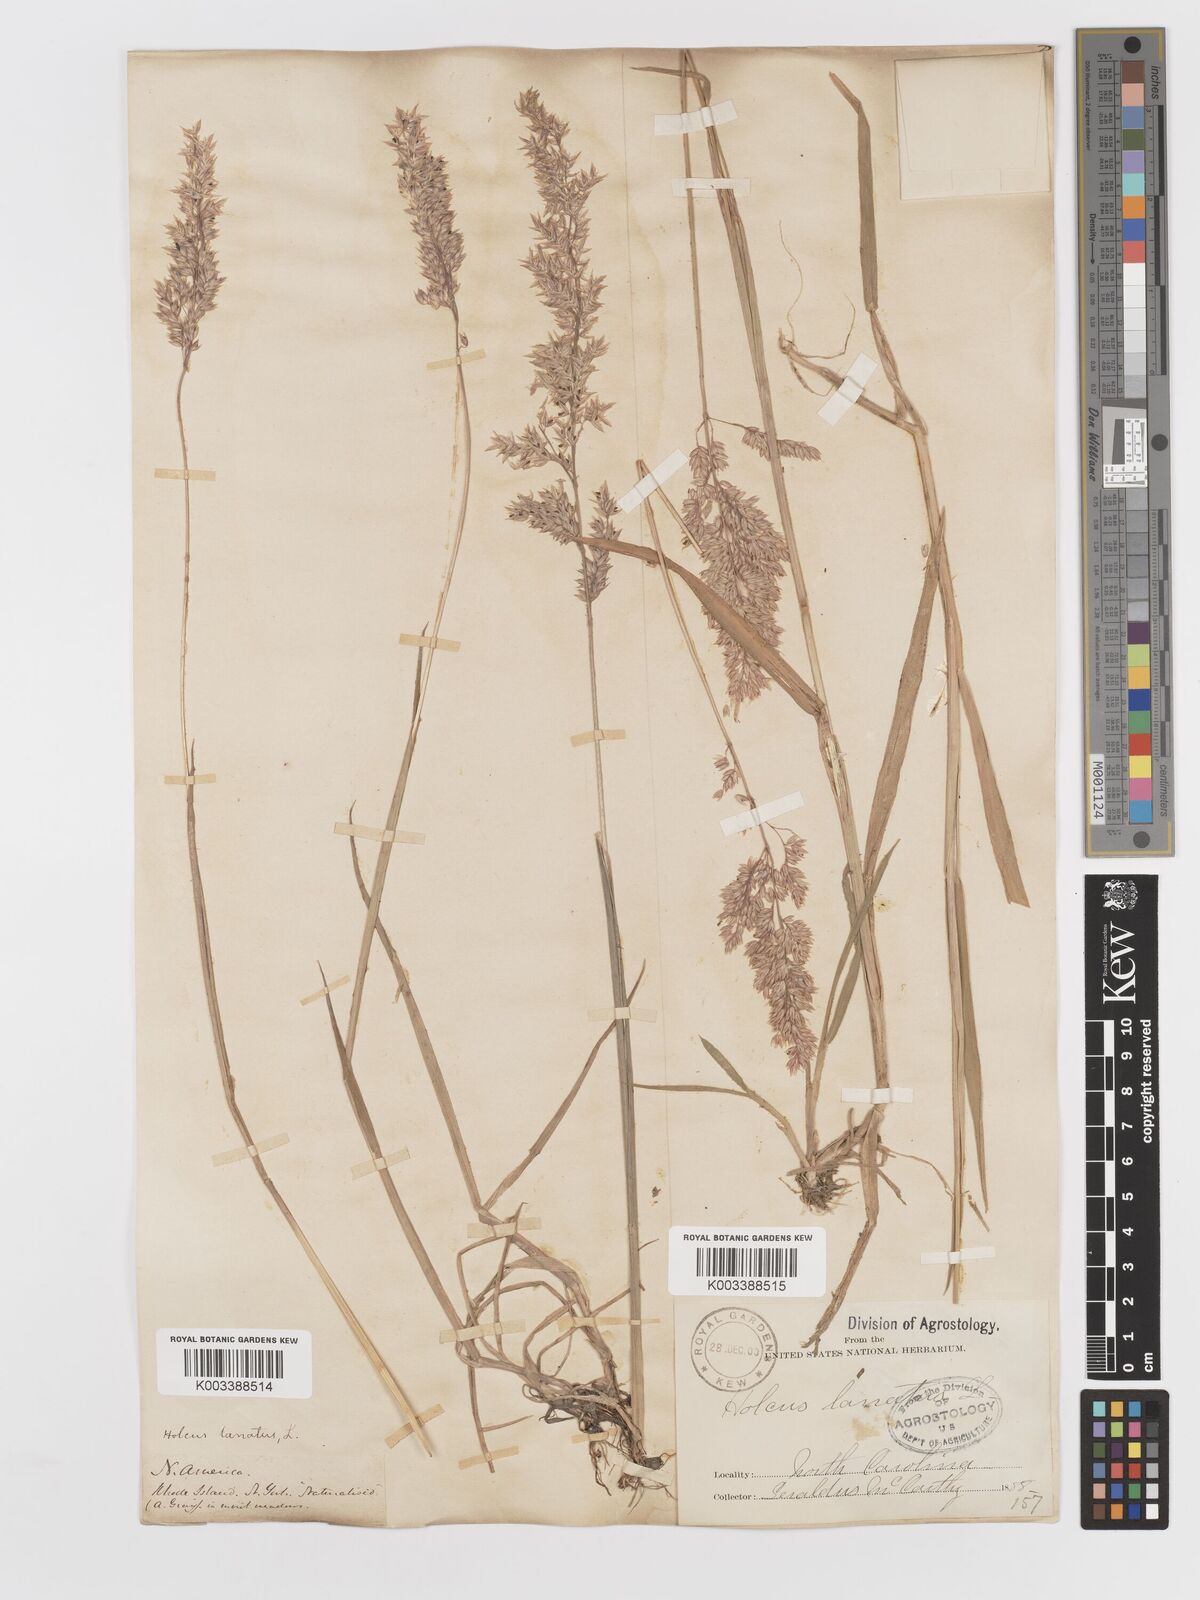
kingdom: Plantae
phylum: Tracheophyta
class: Liliopsida
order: Poales
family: Poaceae
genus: Holcus
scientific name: Holcus lanatus
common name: Yorkshire-fog
